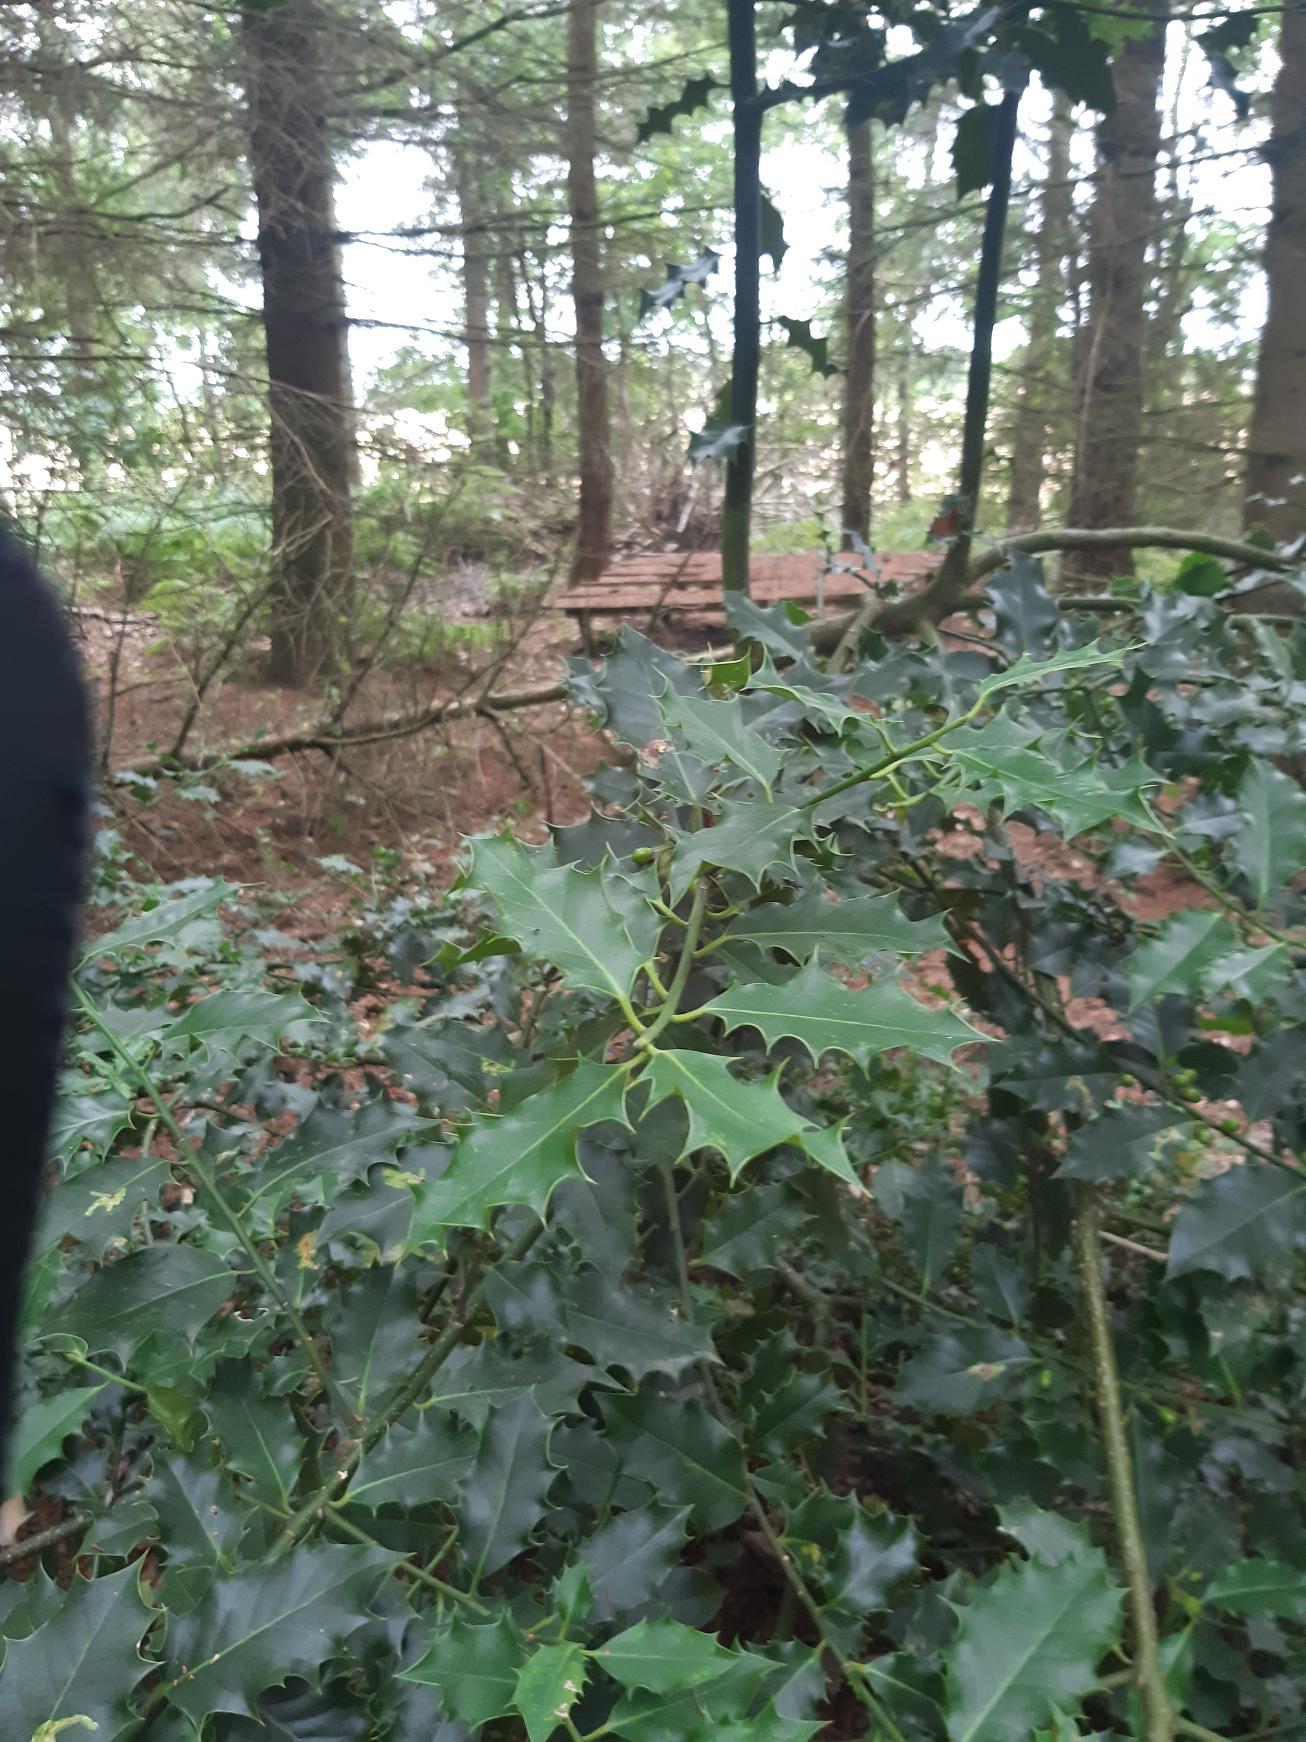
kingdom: Plantae
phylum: Tracheophyta
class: Magnoliopsida
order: Aquifoliales
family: Aquifoliaceae
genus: Ilex
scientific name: Ilex aquifolium
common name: Kristtorn
